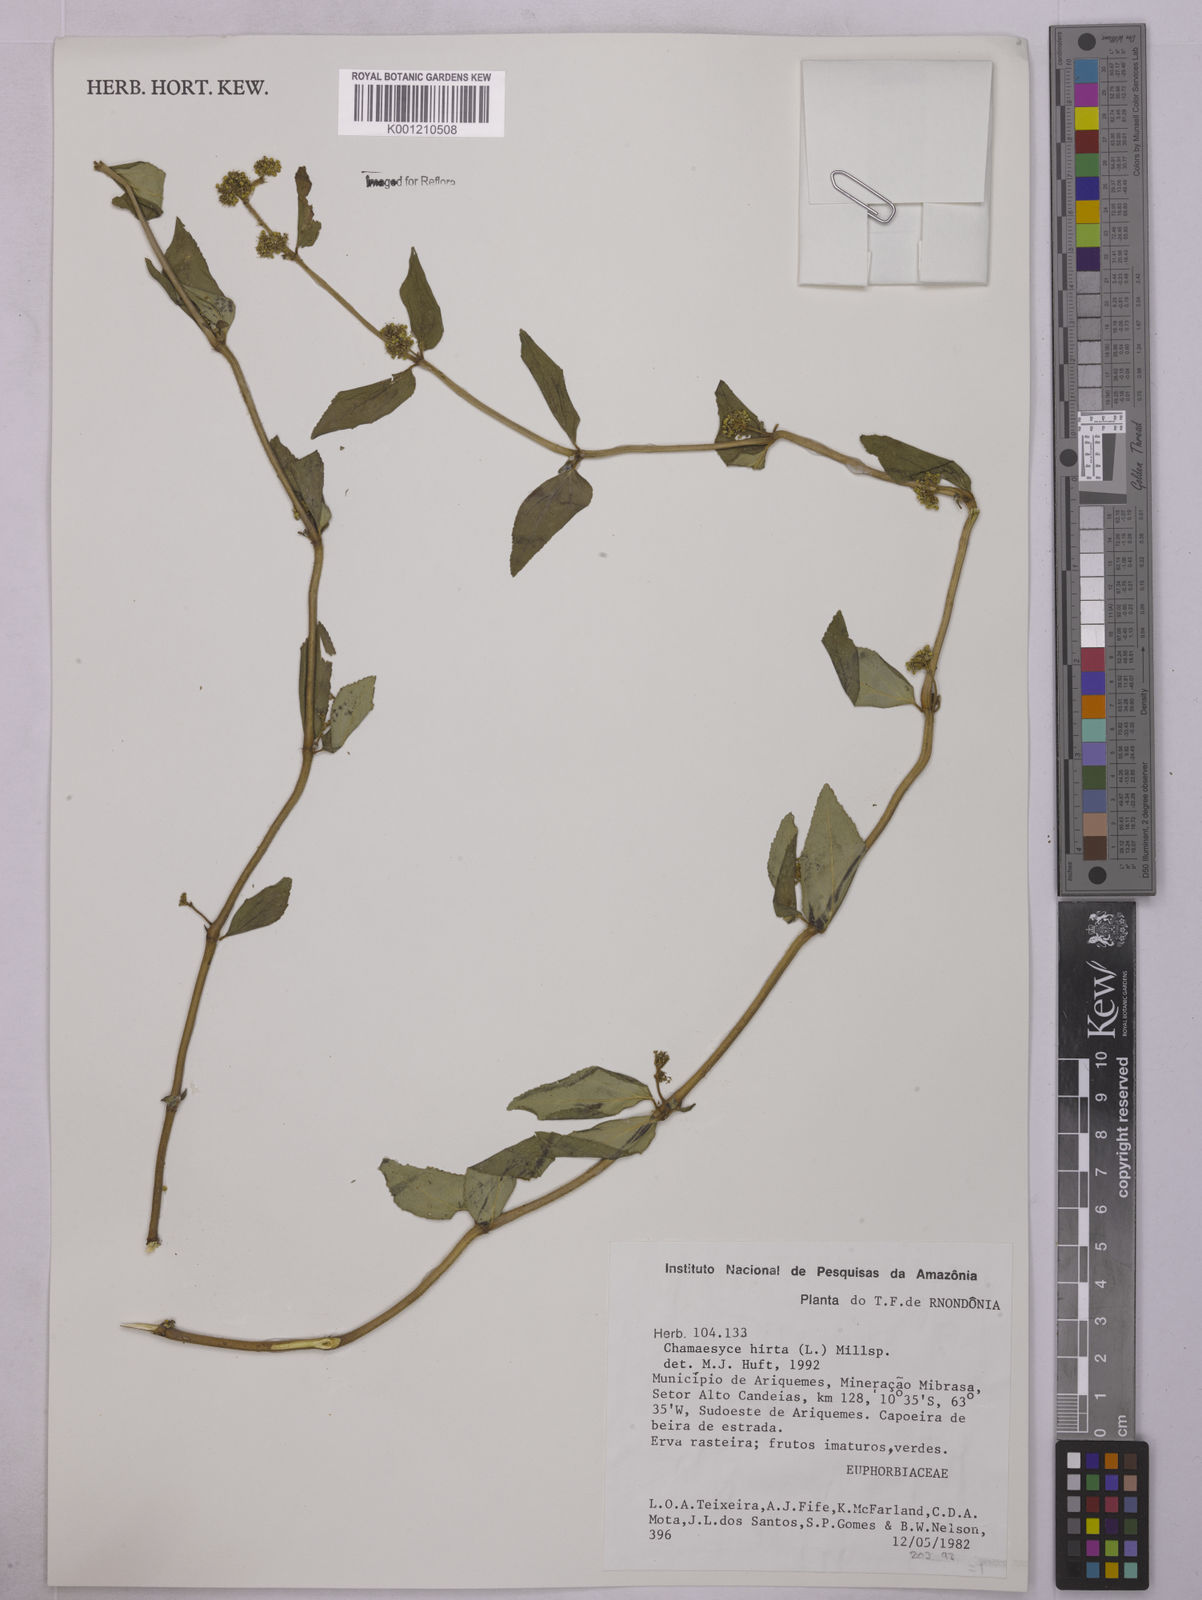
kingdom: Plantae
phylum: Tracheophyta
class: Magnoliopsida
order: Malpighiales
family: Euphorbiaceae
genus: Euphorbia
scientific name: Euphorbia hirta
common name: Pillpod sandmat
